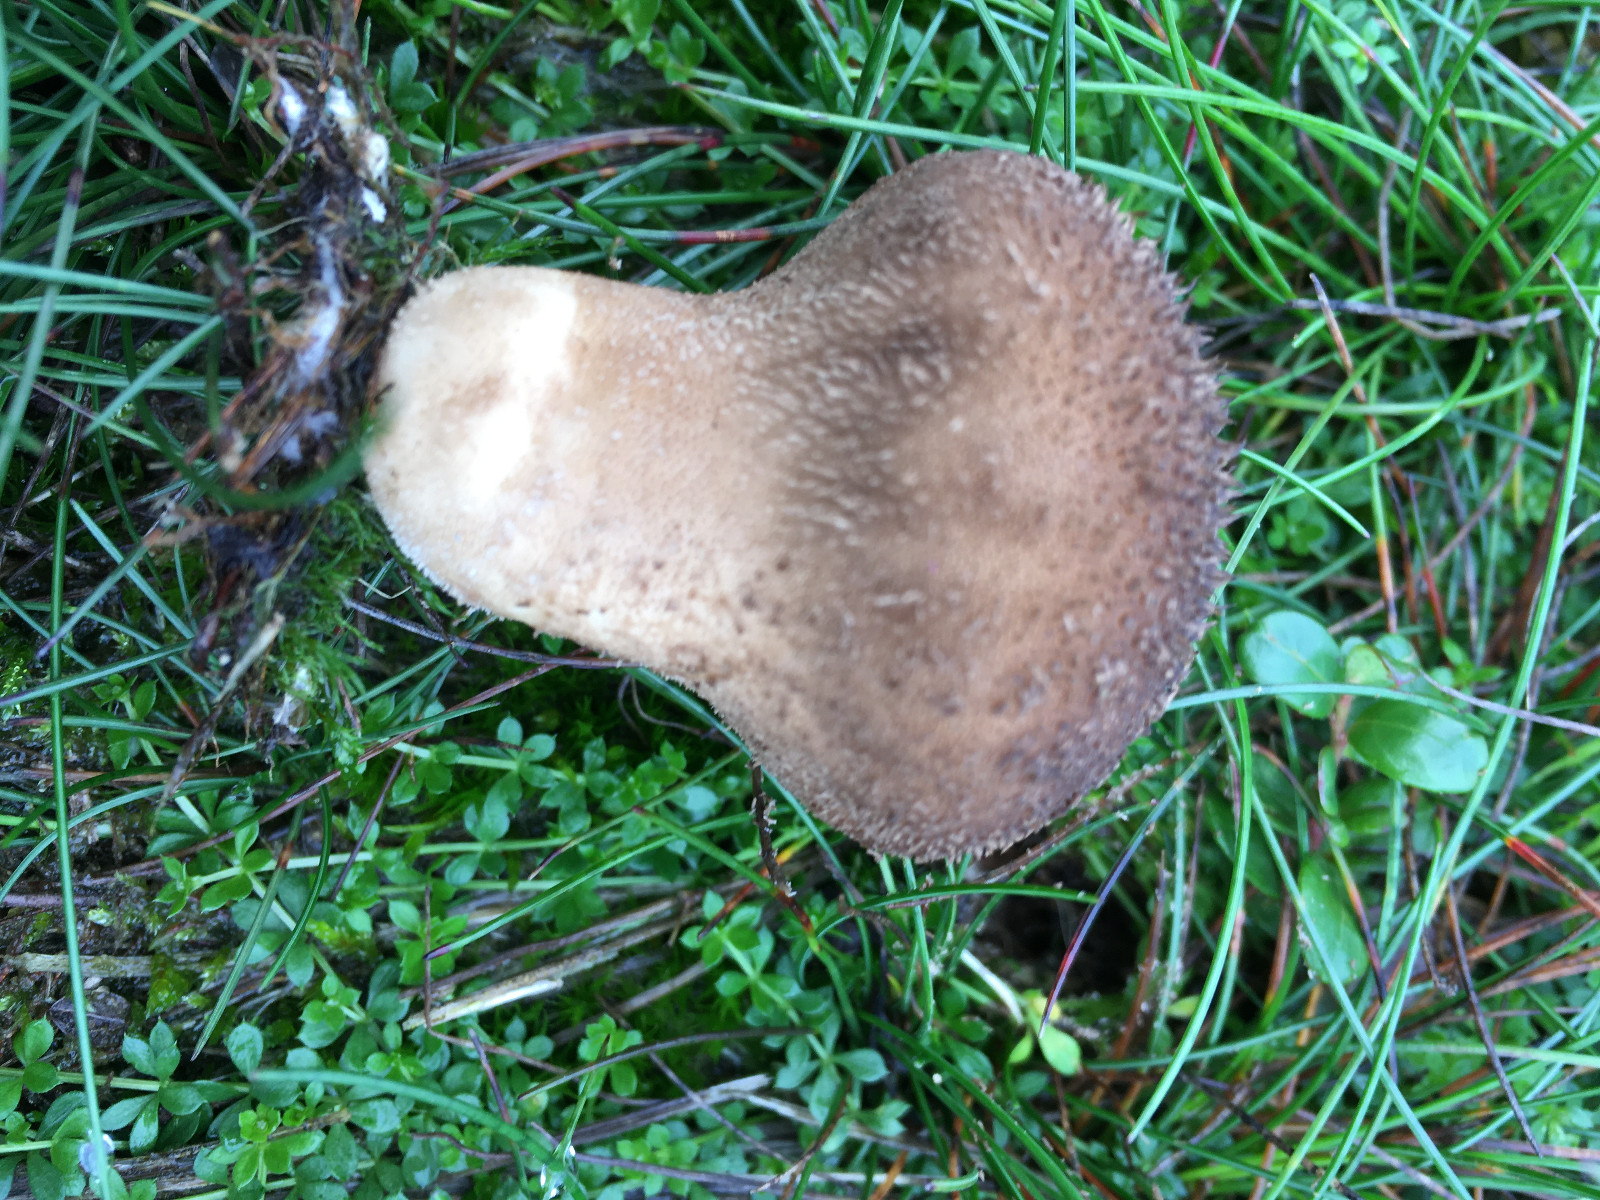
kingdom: Fungi
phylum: Basidiomycota
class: Agaricomycetes
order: Agaricales
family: Lycoperdaceae
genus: Lycoperdon
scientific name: Lycoperdon nigrescens
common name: sortagtig støvbold
